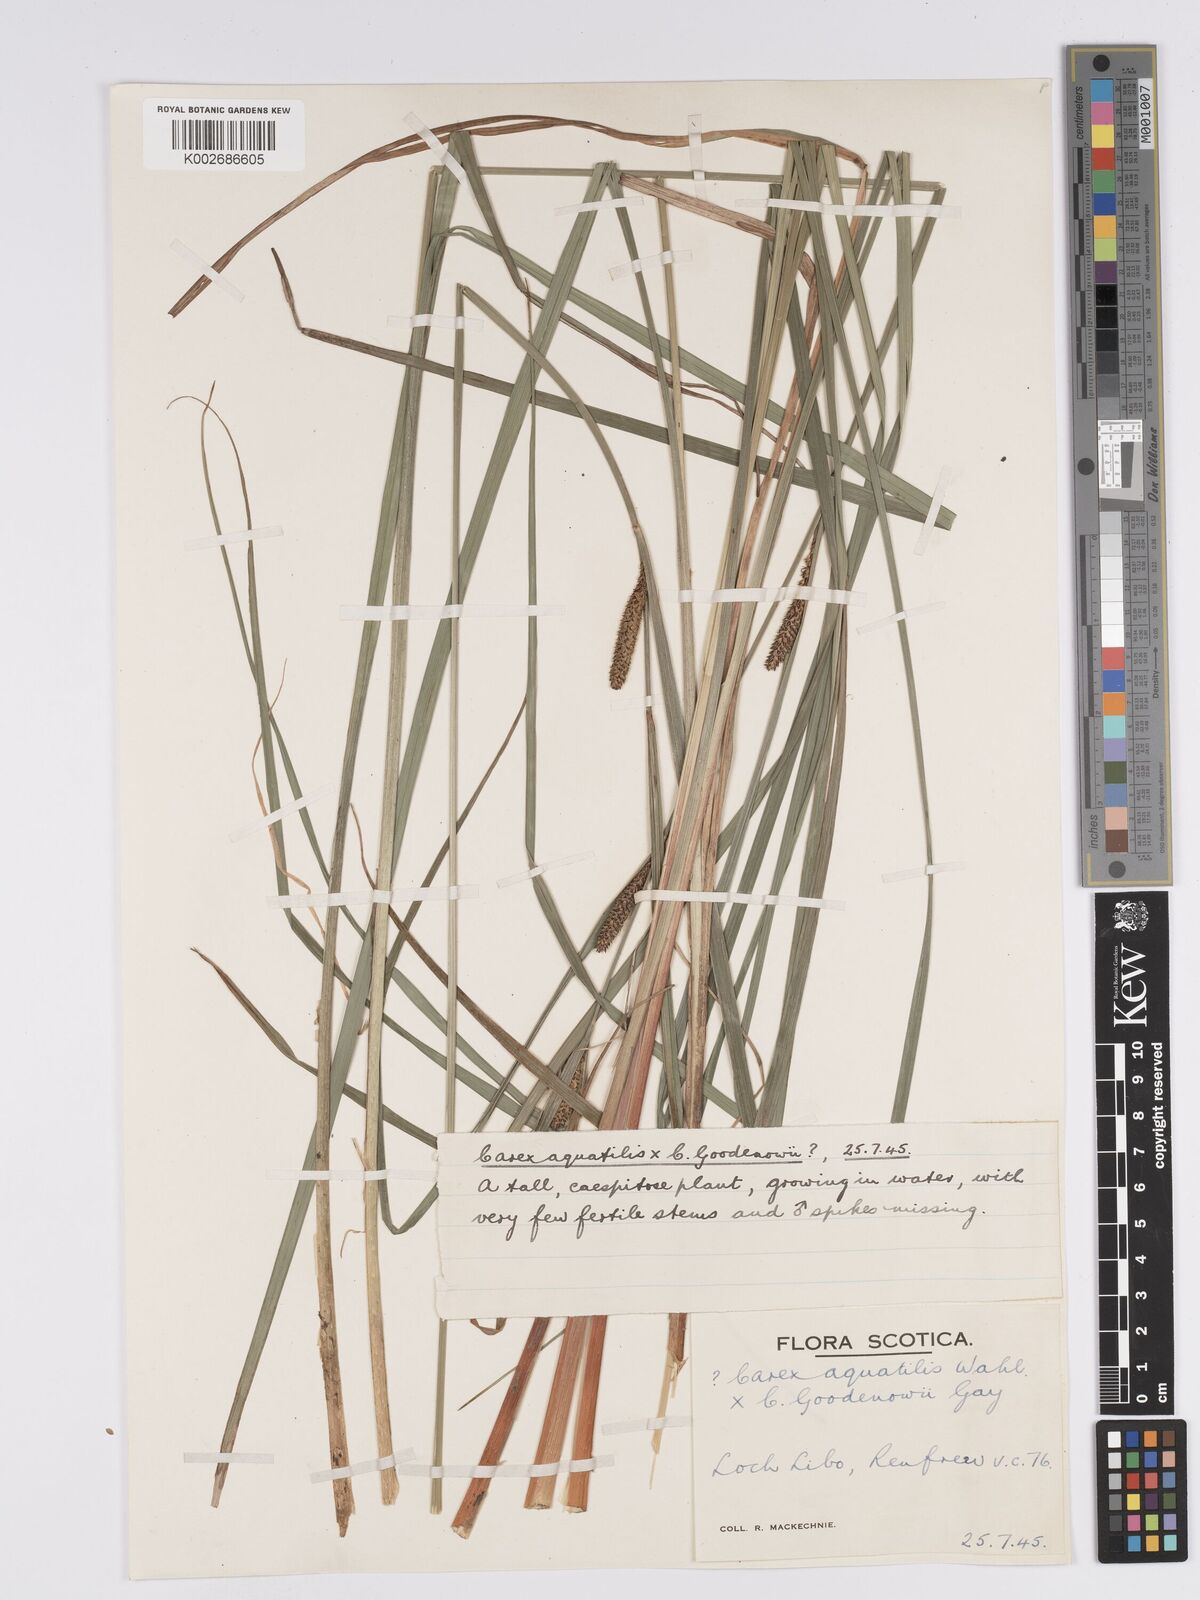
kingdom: Plantae
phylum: Tracheophyta
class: Liliopsida
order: Poales
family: Cyperaceae
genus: Carex
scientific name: Carex aquatilis
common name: Water sedge
